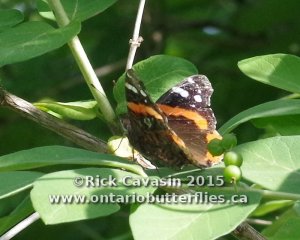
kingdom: Animalia
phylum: Arthropoda
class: Insecta
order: Lepidoptera
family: Nymphalidae
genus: Vanessa
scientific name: Vanessa atalanta
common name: Red Admiral
